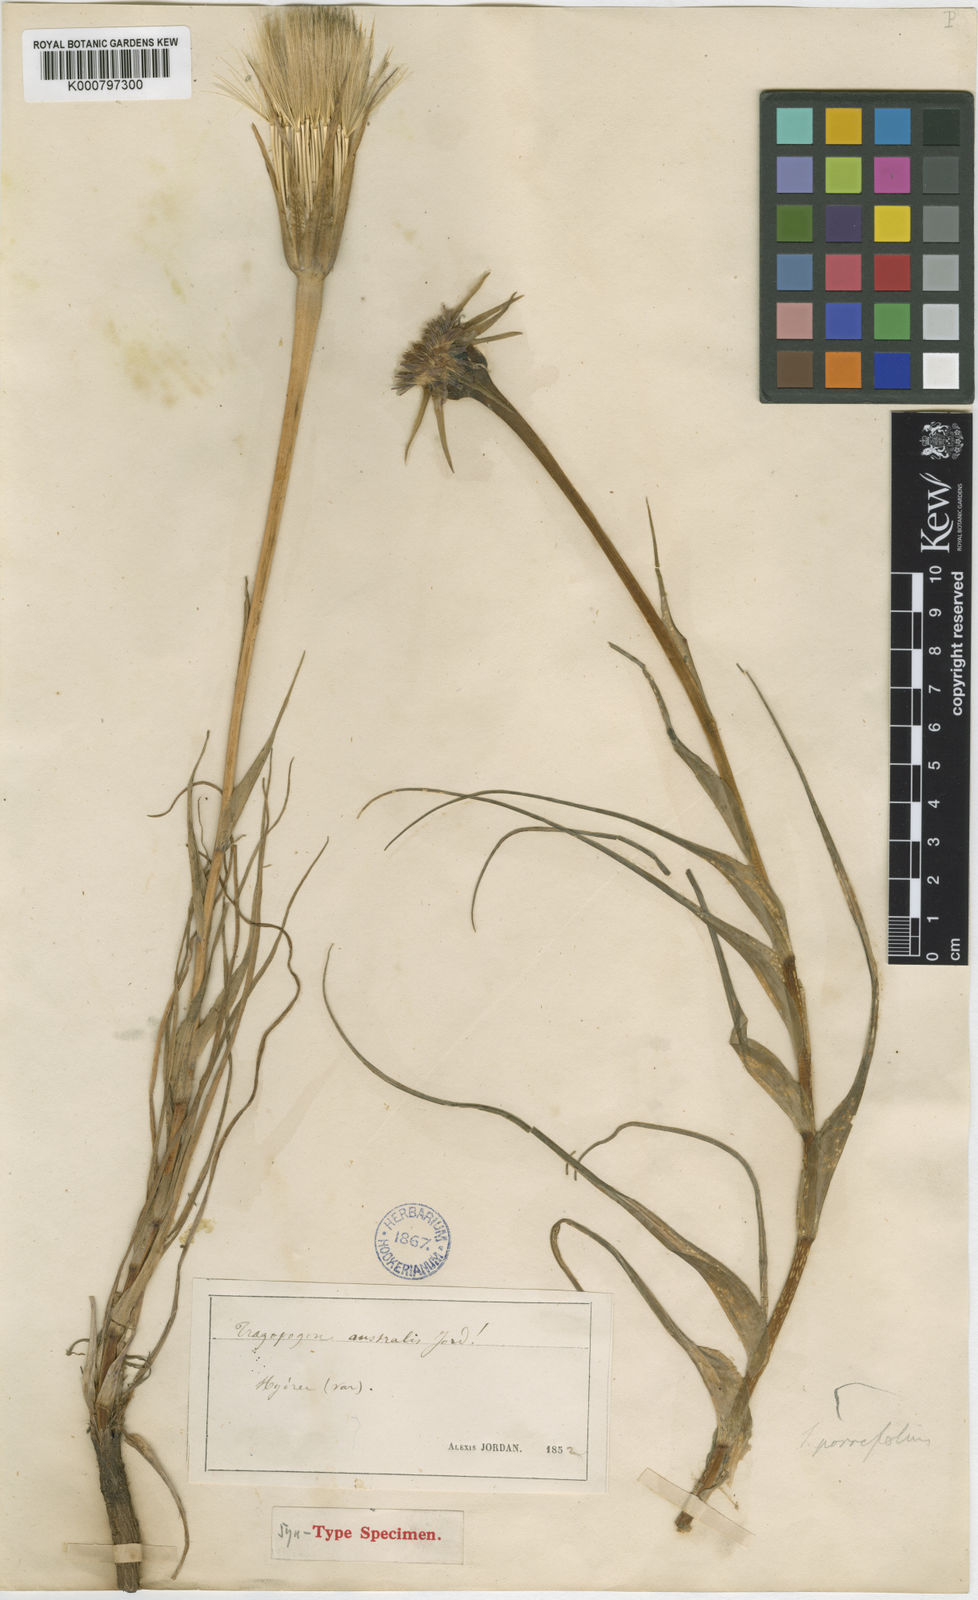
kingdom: Plantae
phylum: Tracheophyta
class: Magnoliopsida
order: Asterales
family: Asteraceae
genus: Tragopogon
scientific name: Tragopogon porrifolius
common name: Salsify
